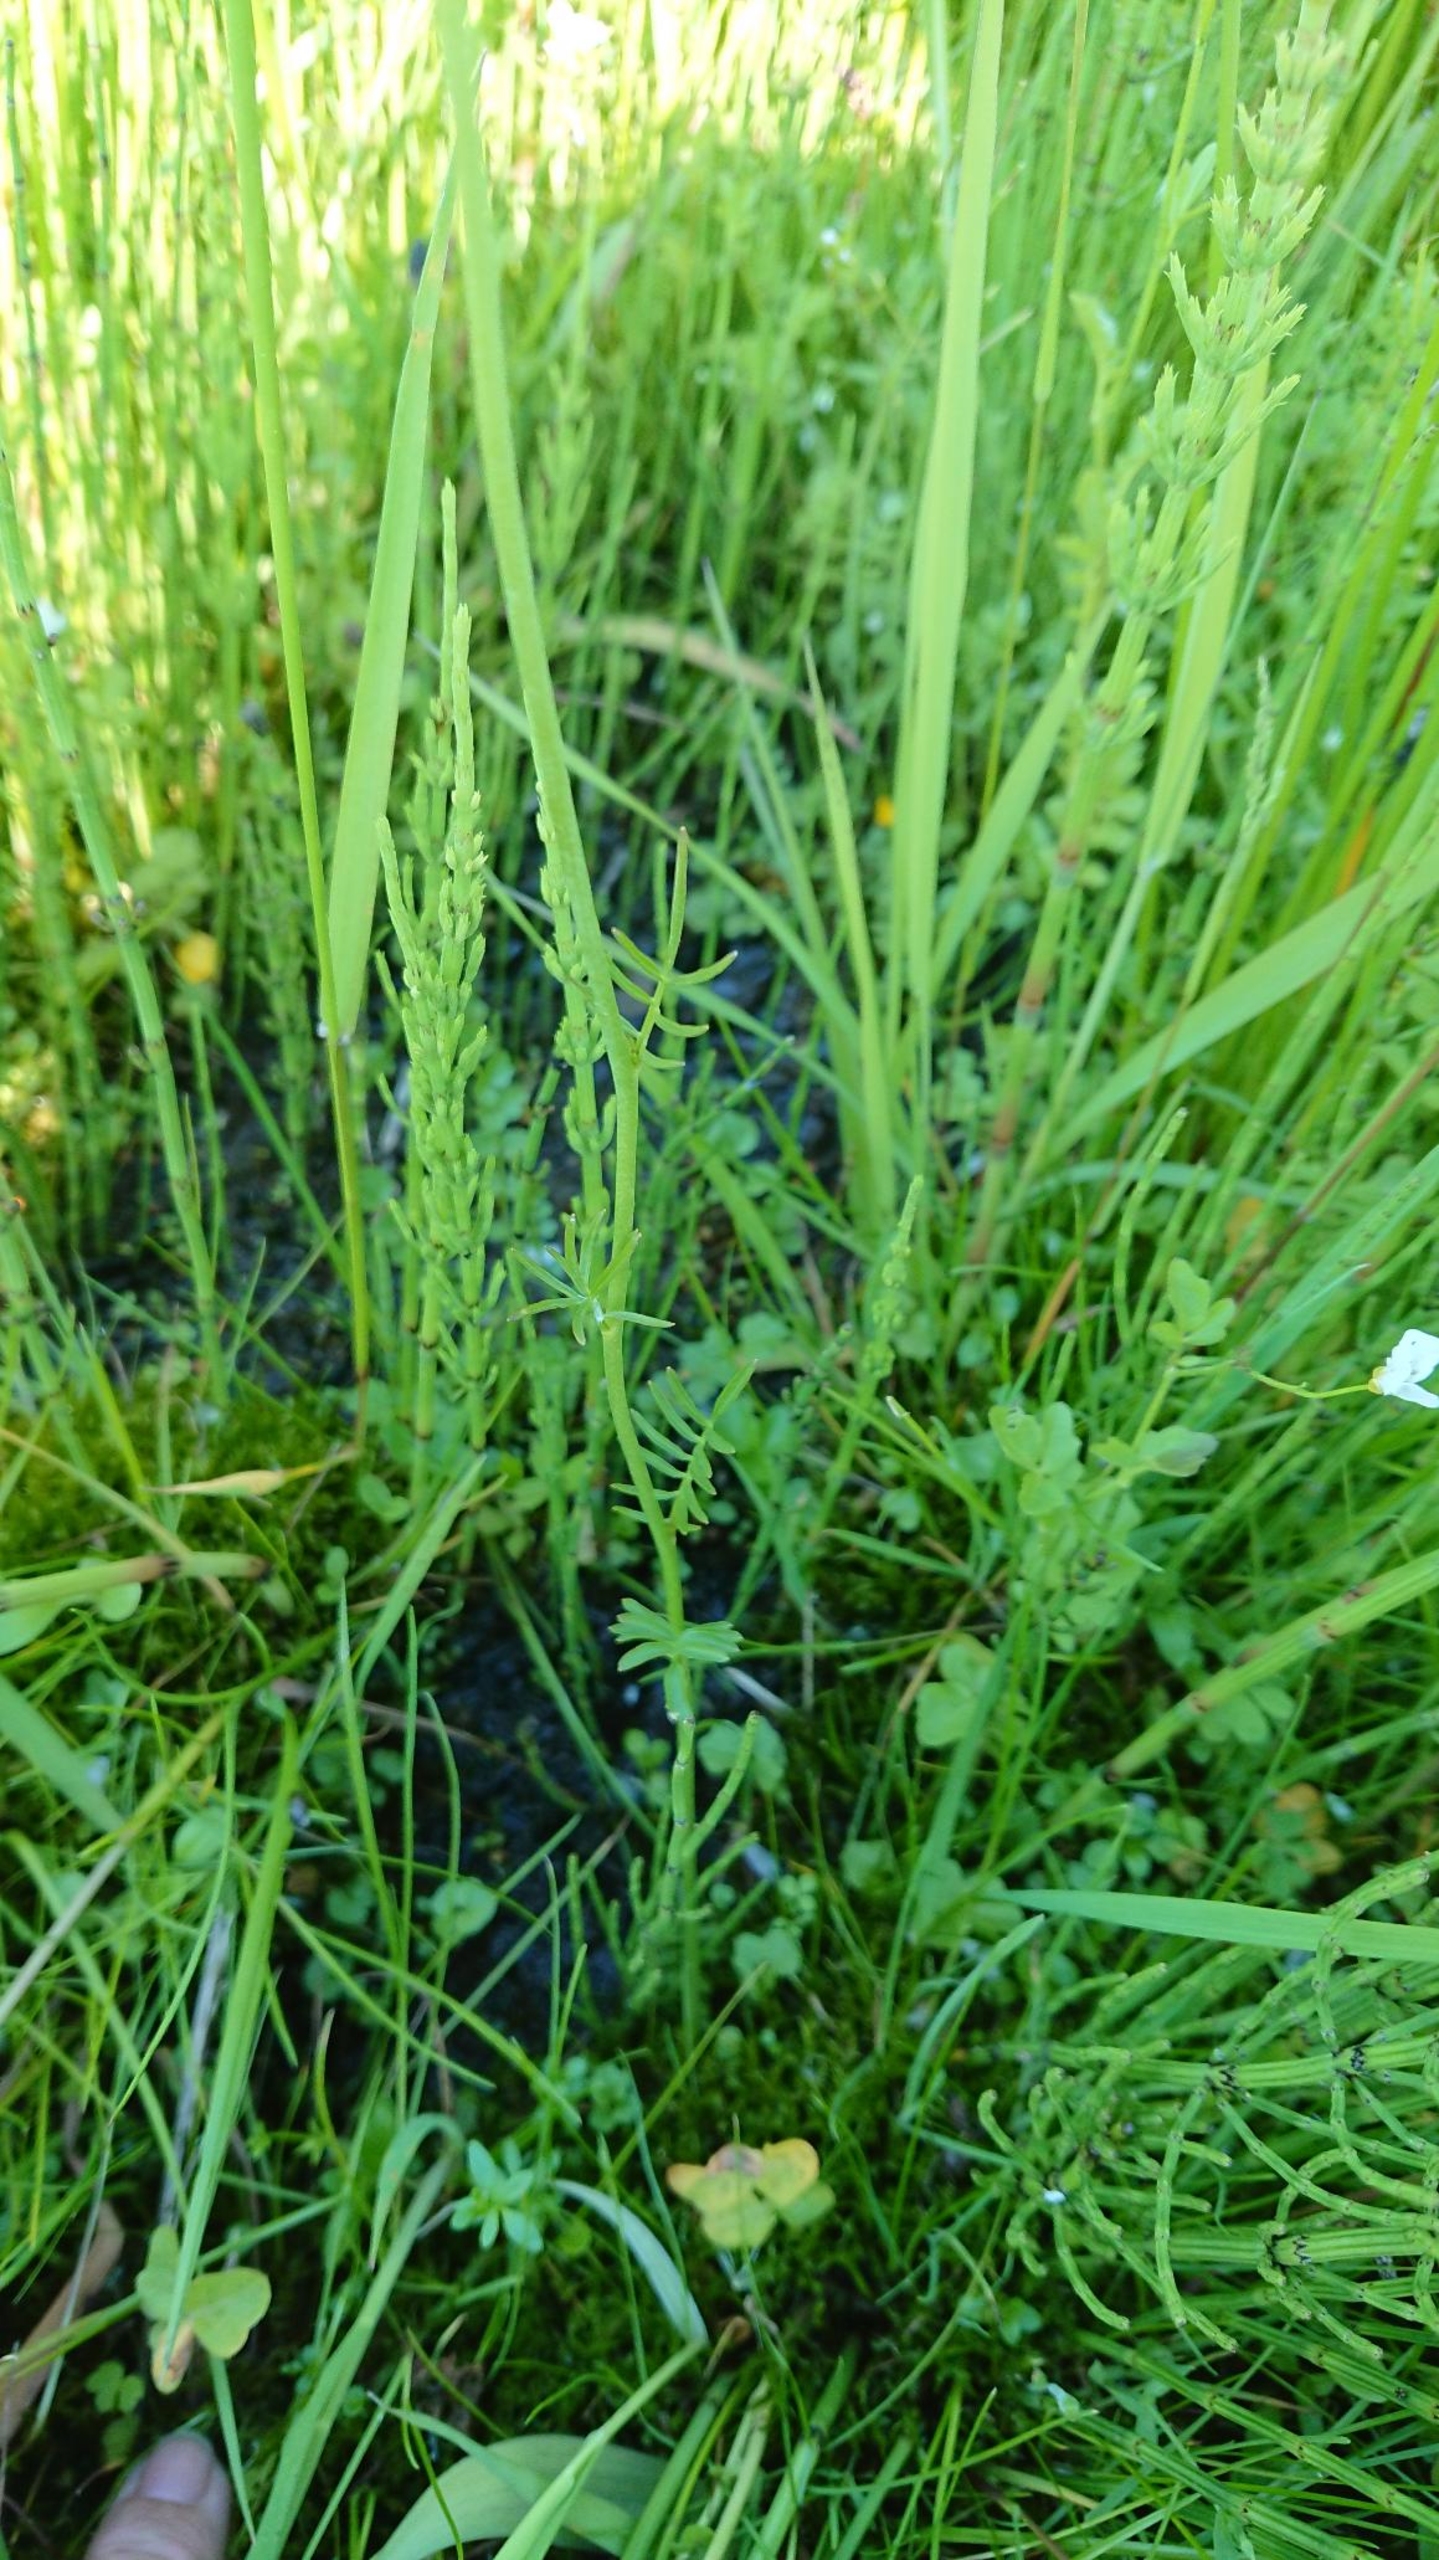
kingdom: Plantae
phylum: Tracheophyta
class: Magnoliopsida
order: Brassicales
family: Brassicaceae
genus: Cardamine
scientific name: Cardamine pratensis
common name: Engkarse
